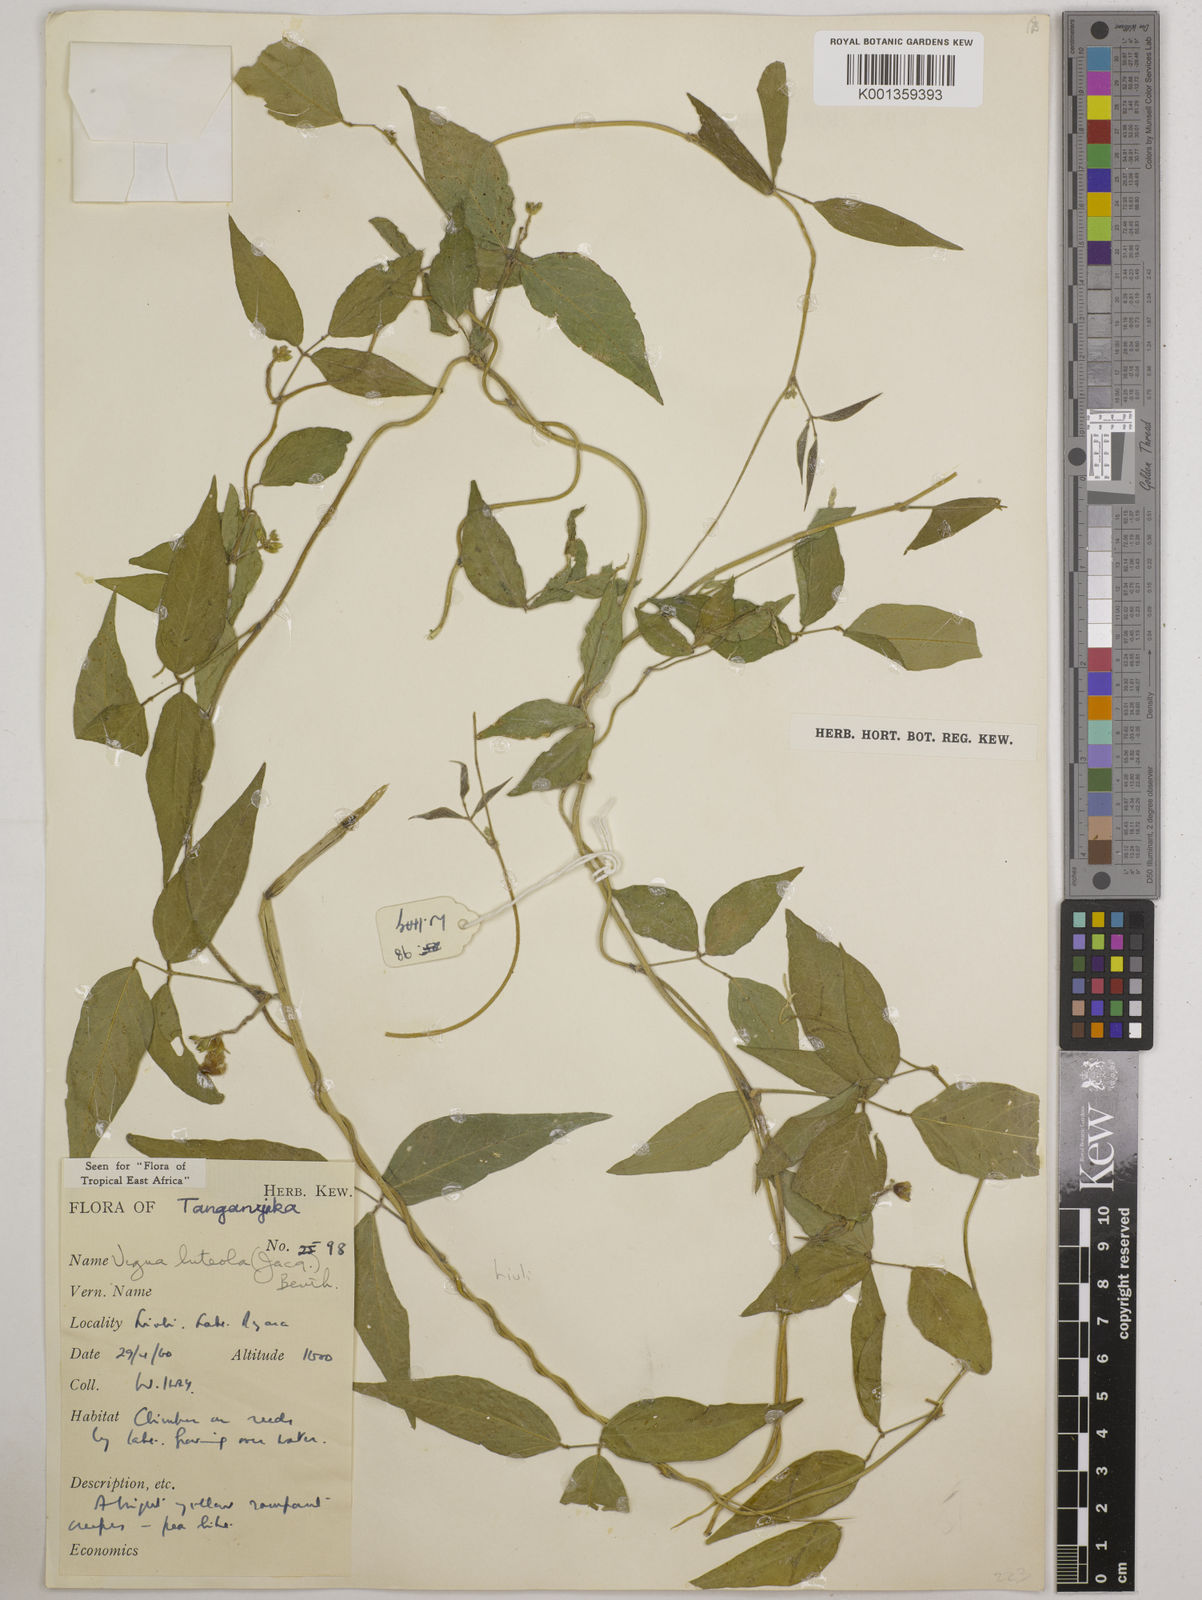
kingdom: Plantae
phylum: Tracheophyta
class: Magnoliopsida
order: Fabales
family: Fabaceae
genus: Vigna
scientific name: Vigna luteola
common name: Hairypod cowpea
